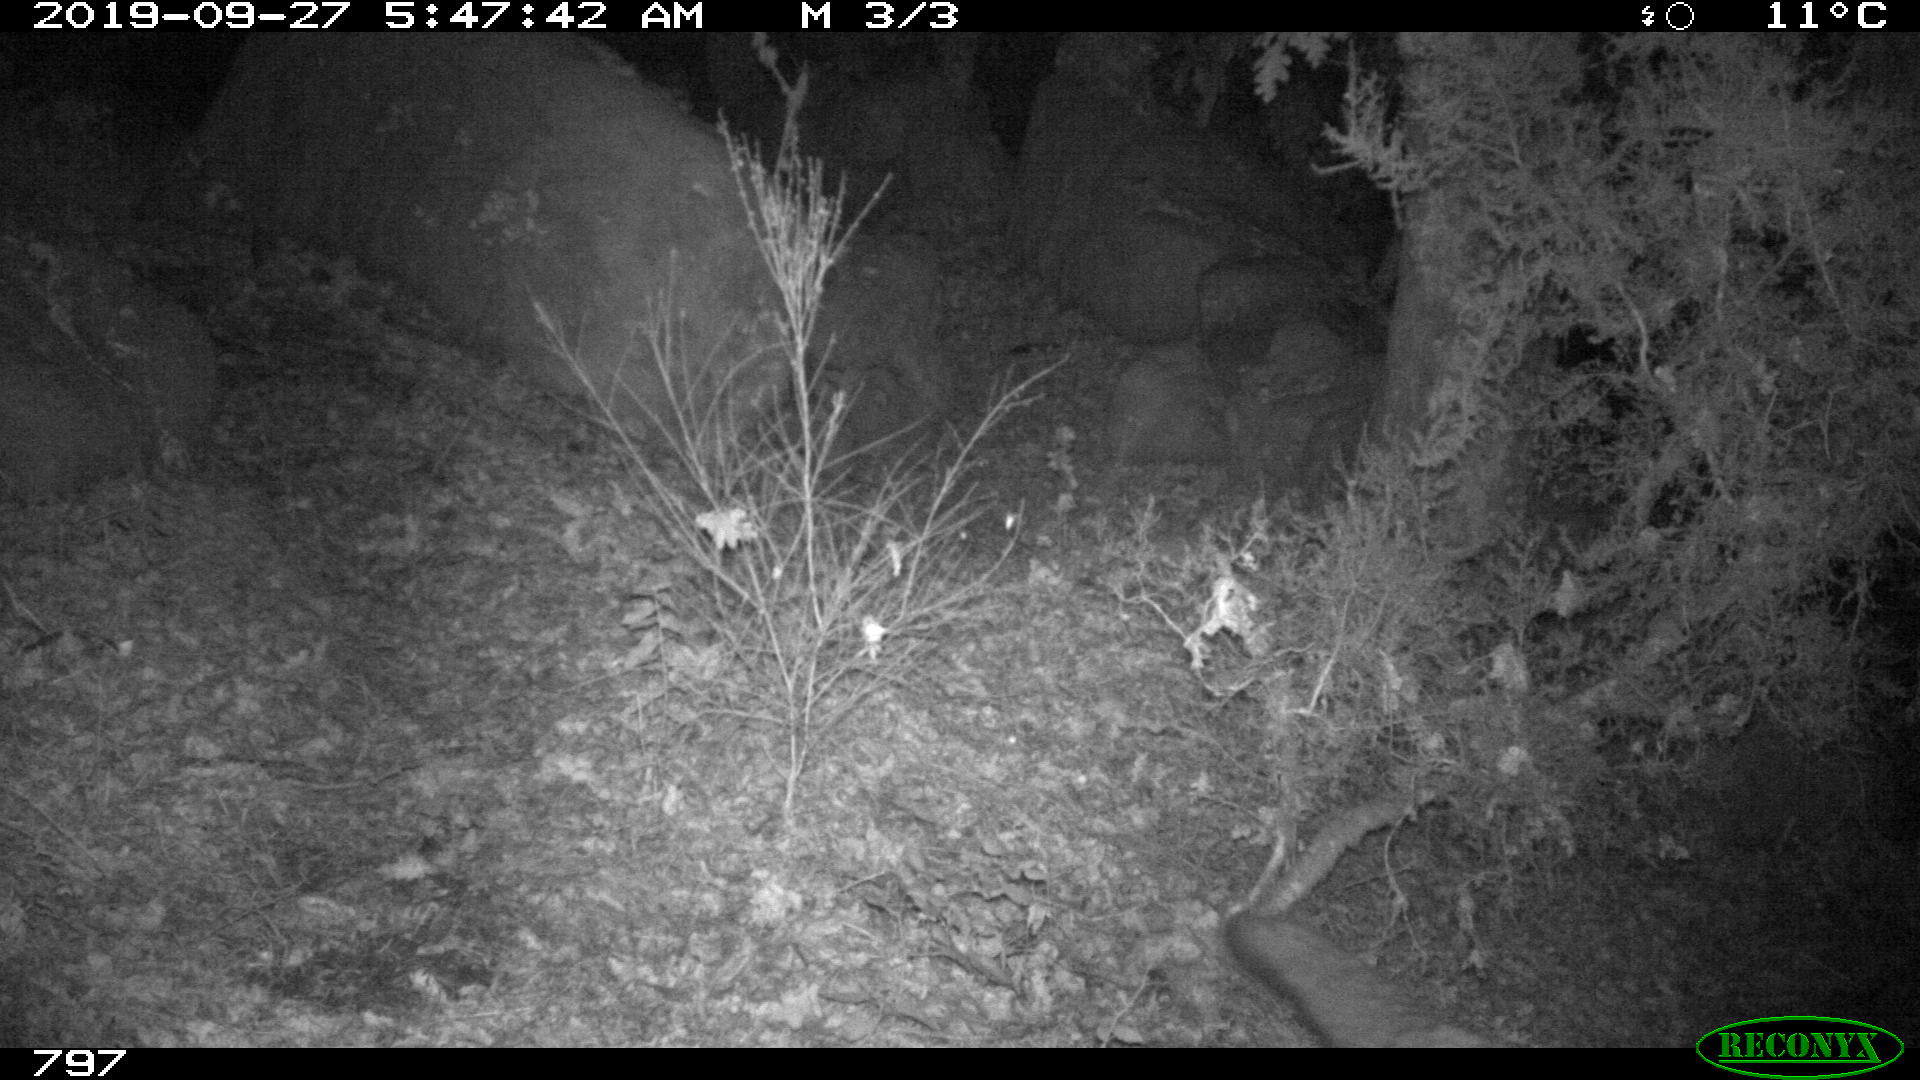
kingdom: Animalia
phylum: Chordata
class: Mammalia
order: Carnivora
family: Canidae
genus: Vulpes
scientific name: Vulpes vulpes
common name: Red fox
